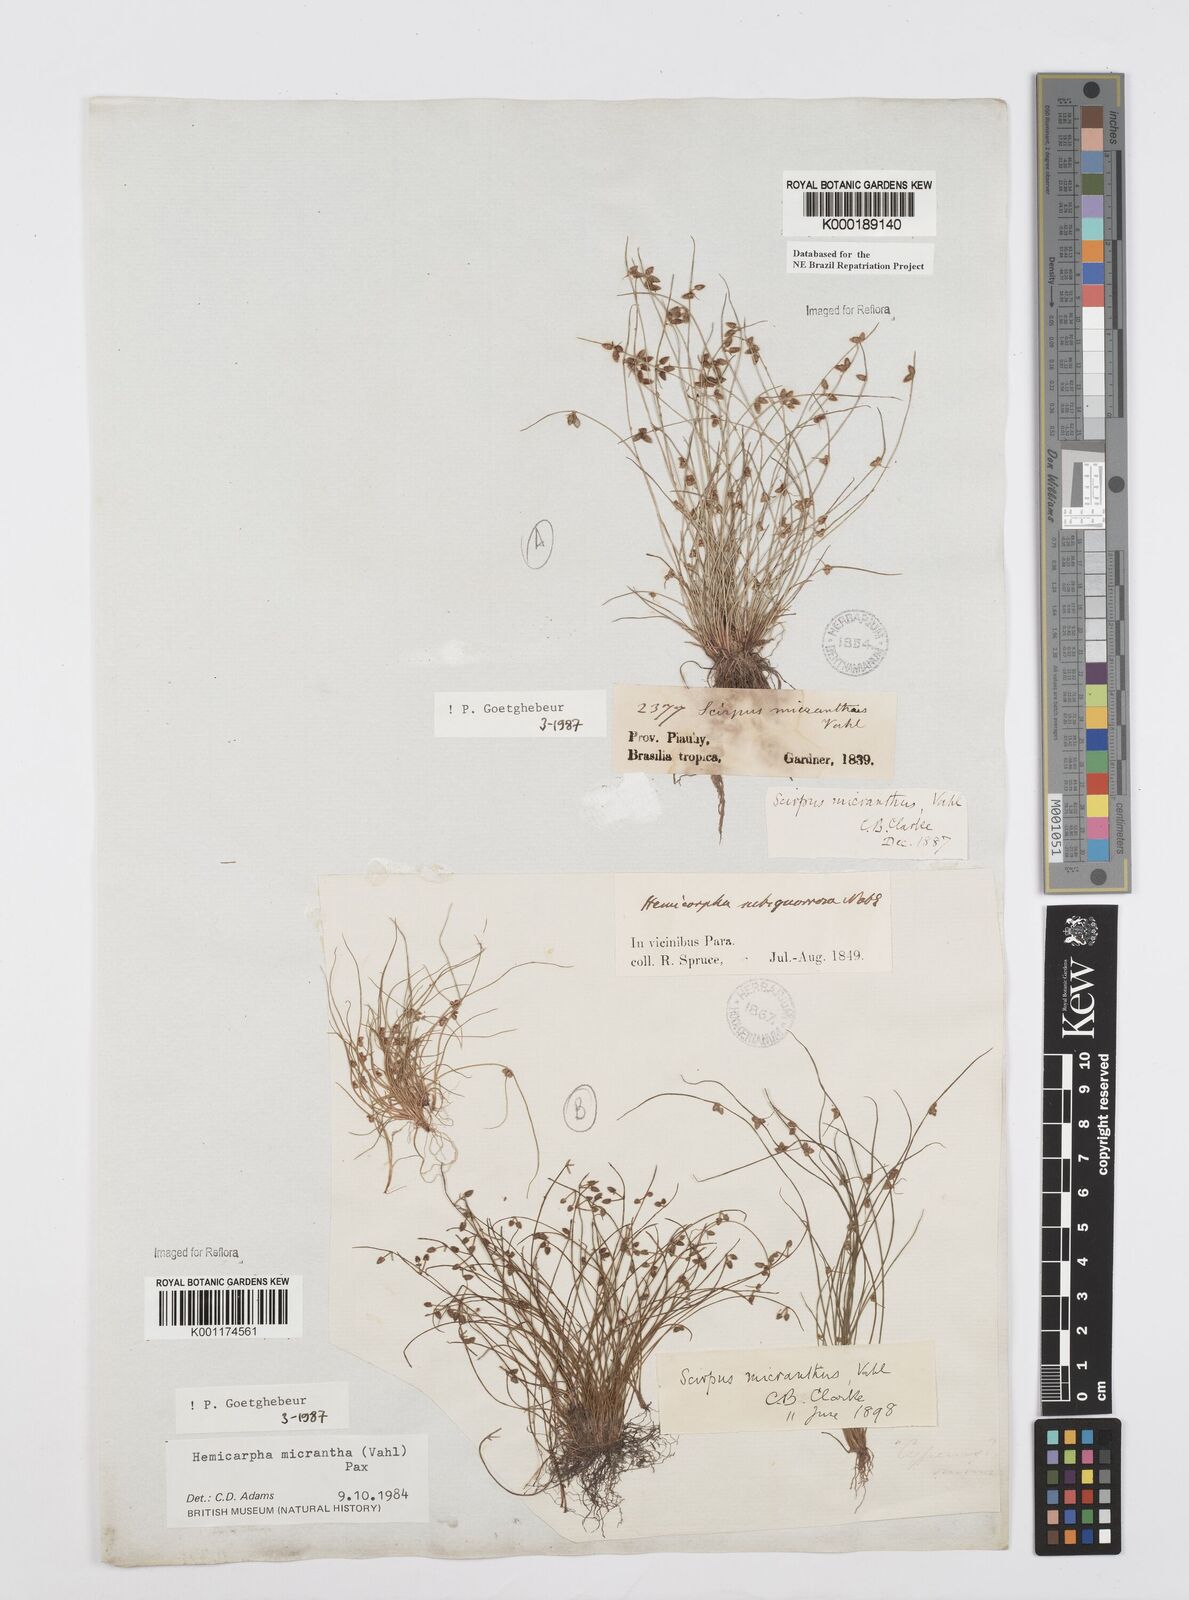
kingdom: Plantae
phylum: Tracheophyta
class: Liliopsida
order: Poales
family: Cyperaceae
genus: Cyperus
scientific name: Cyperus
